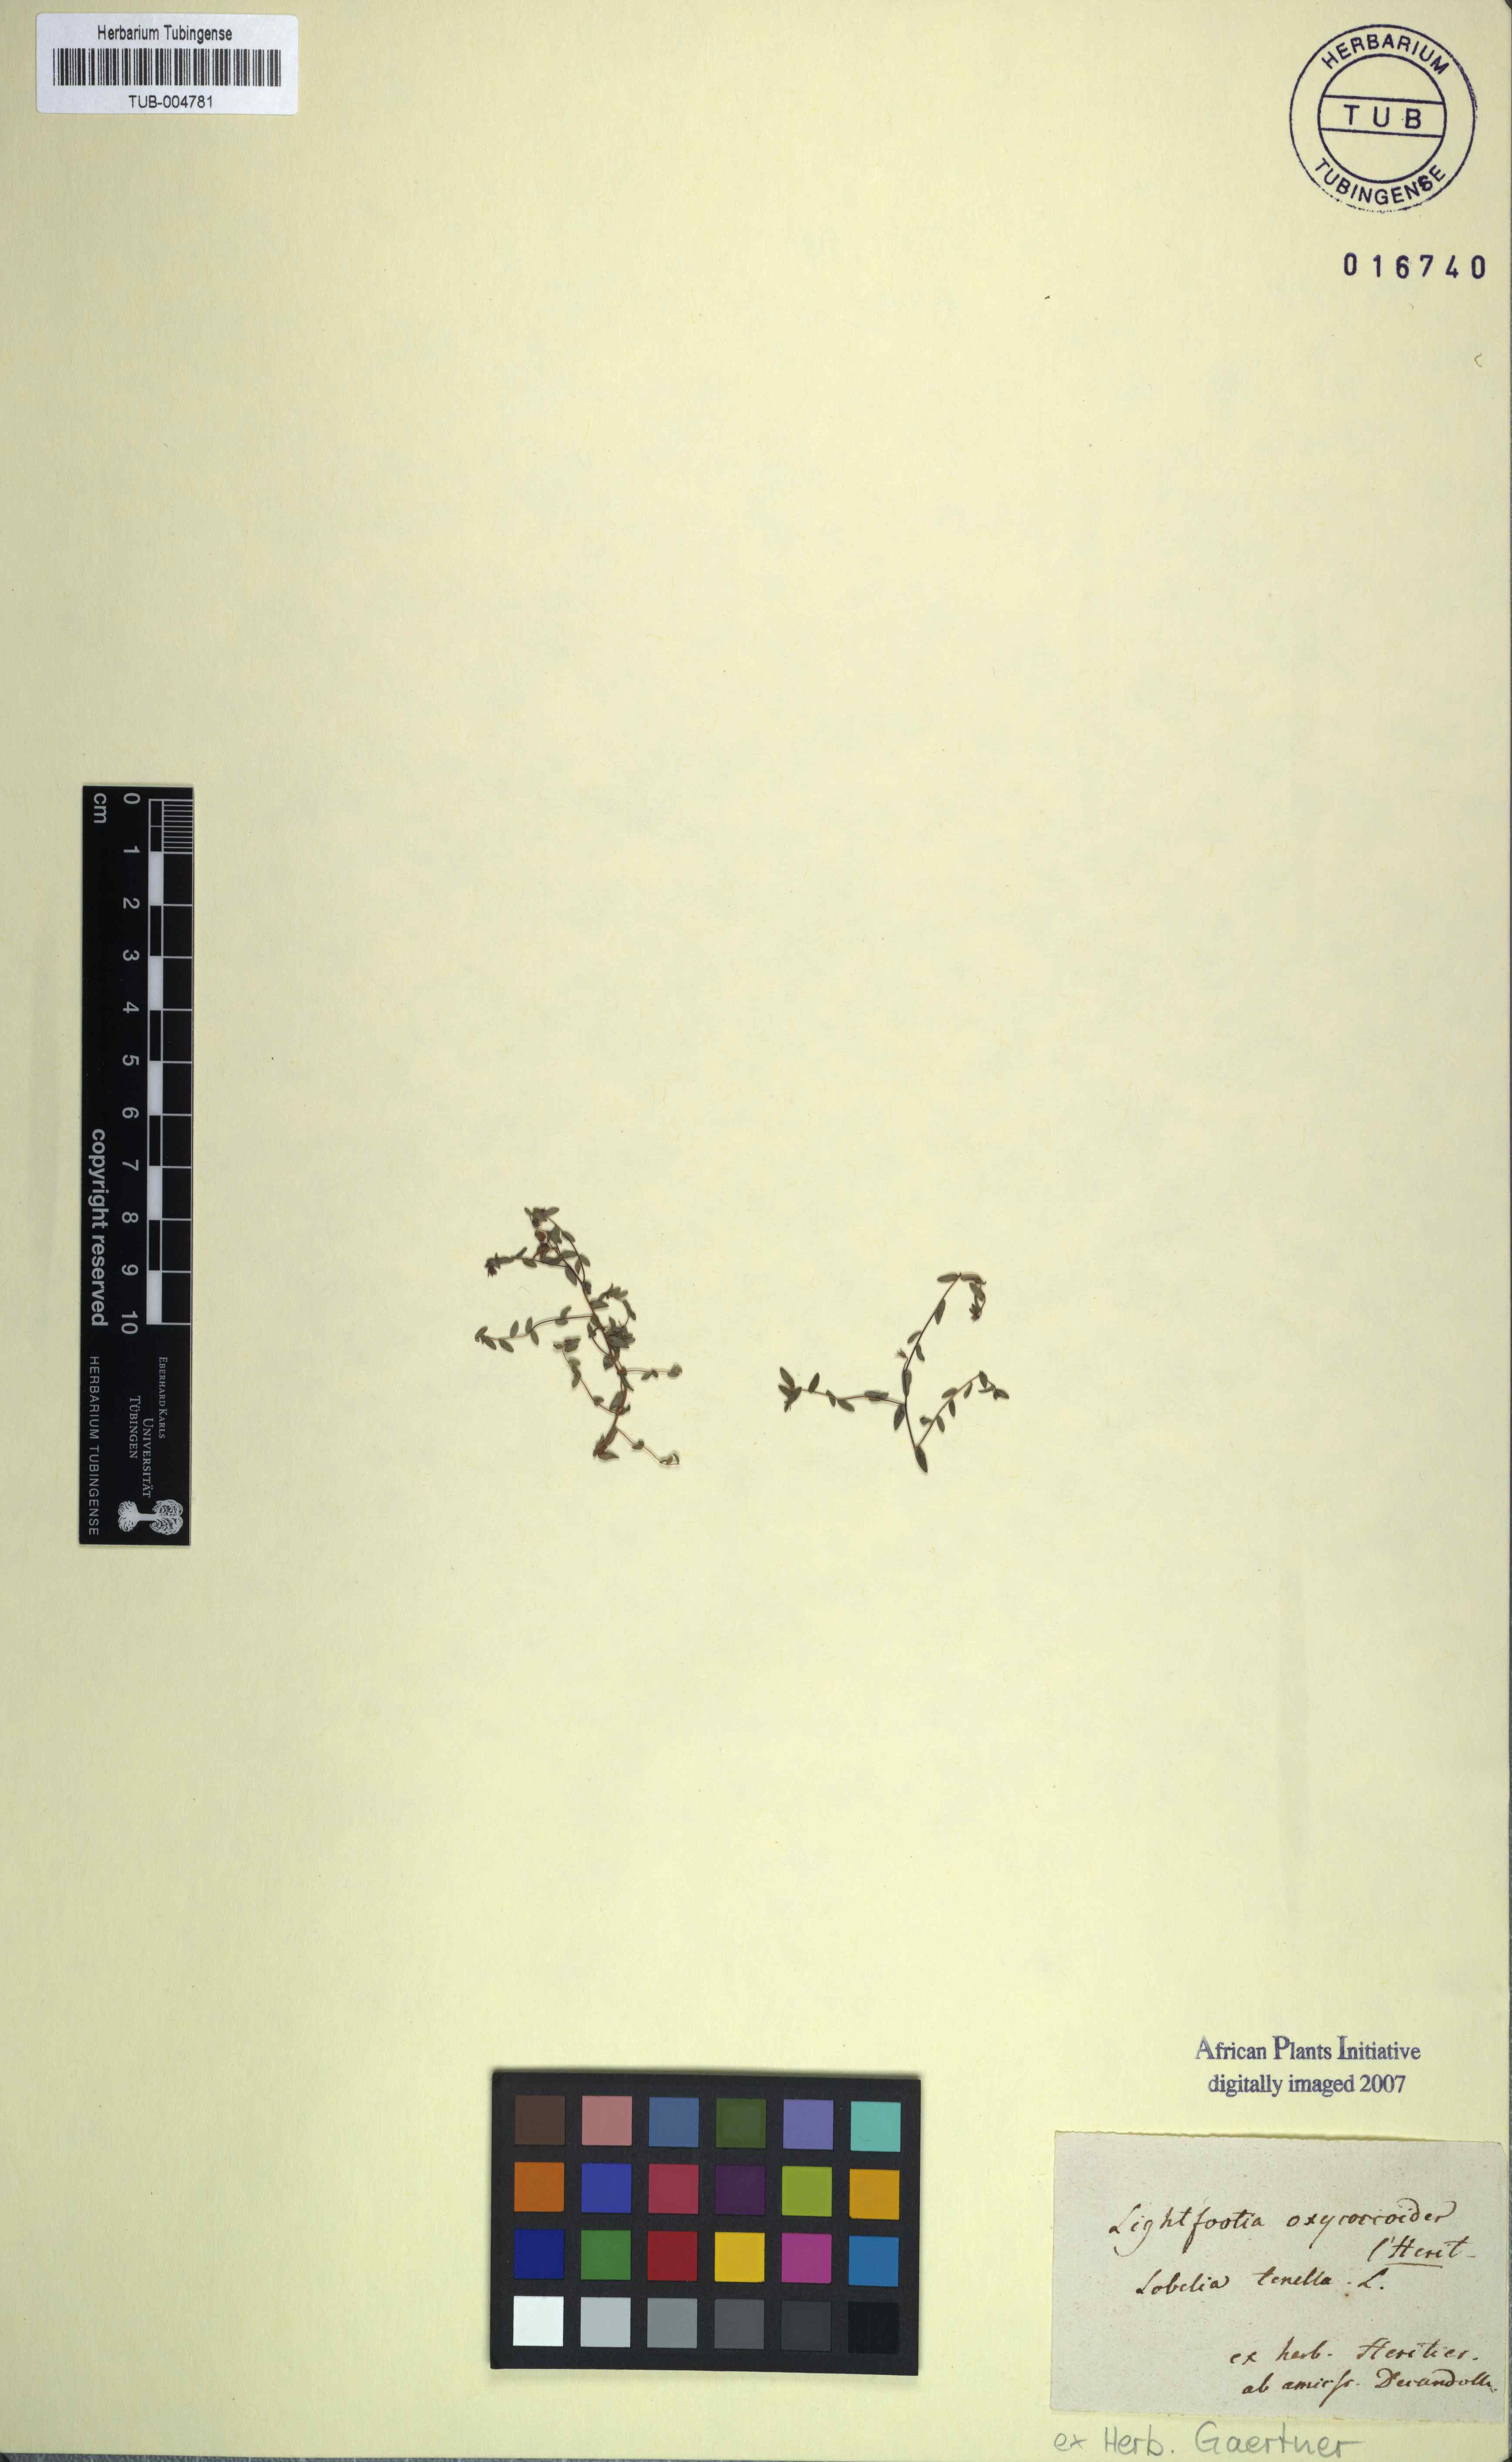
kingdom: Plantae
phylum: Tracheophyta
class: Magnoliopsida
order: Asterales
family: Campanulaceae
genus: Wahlenbergia
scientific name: Wahlenbergia parvifolia
